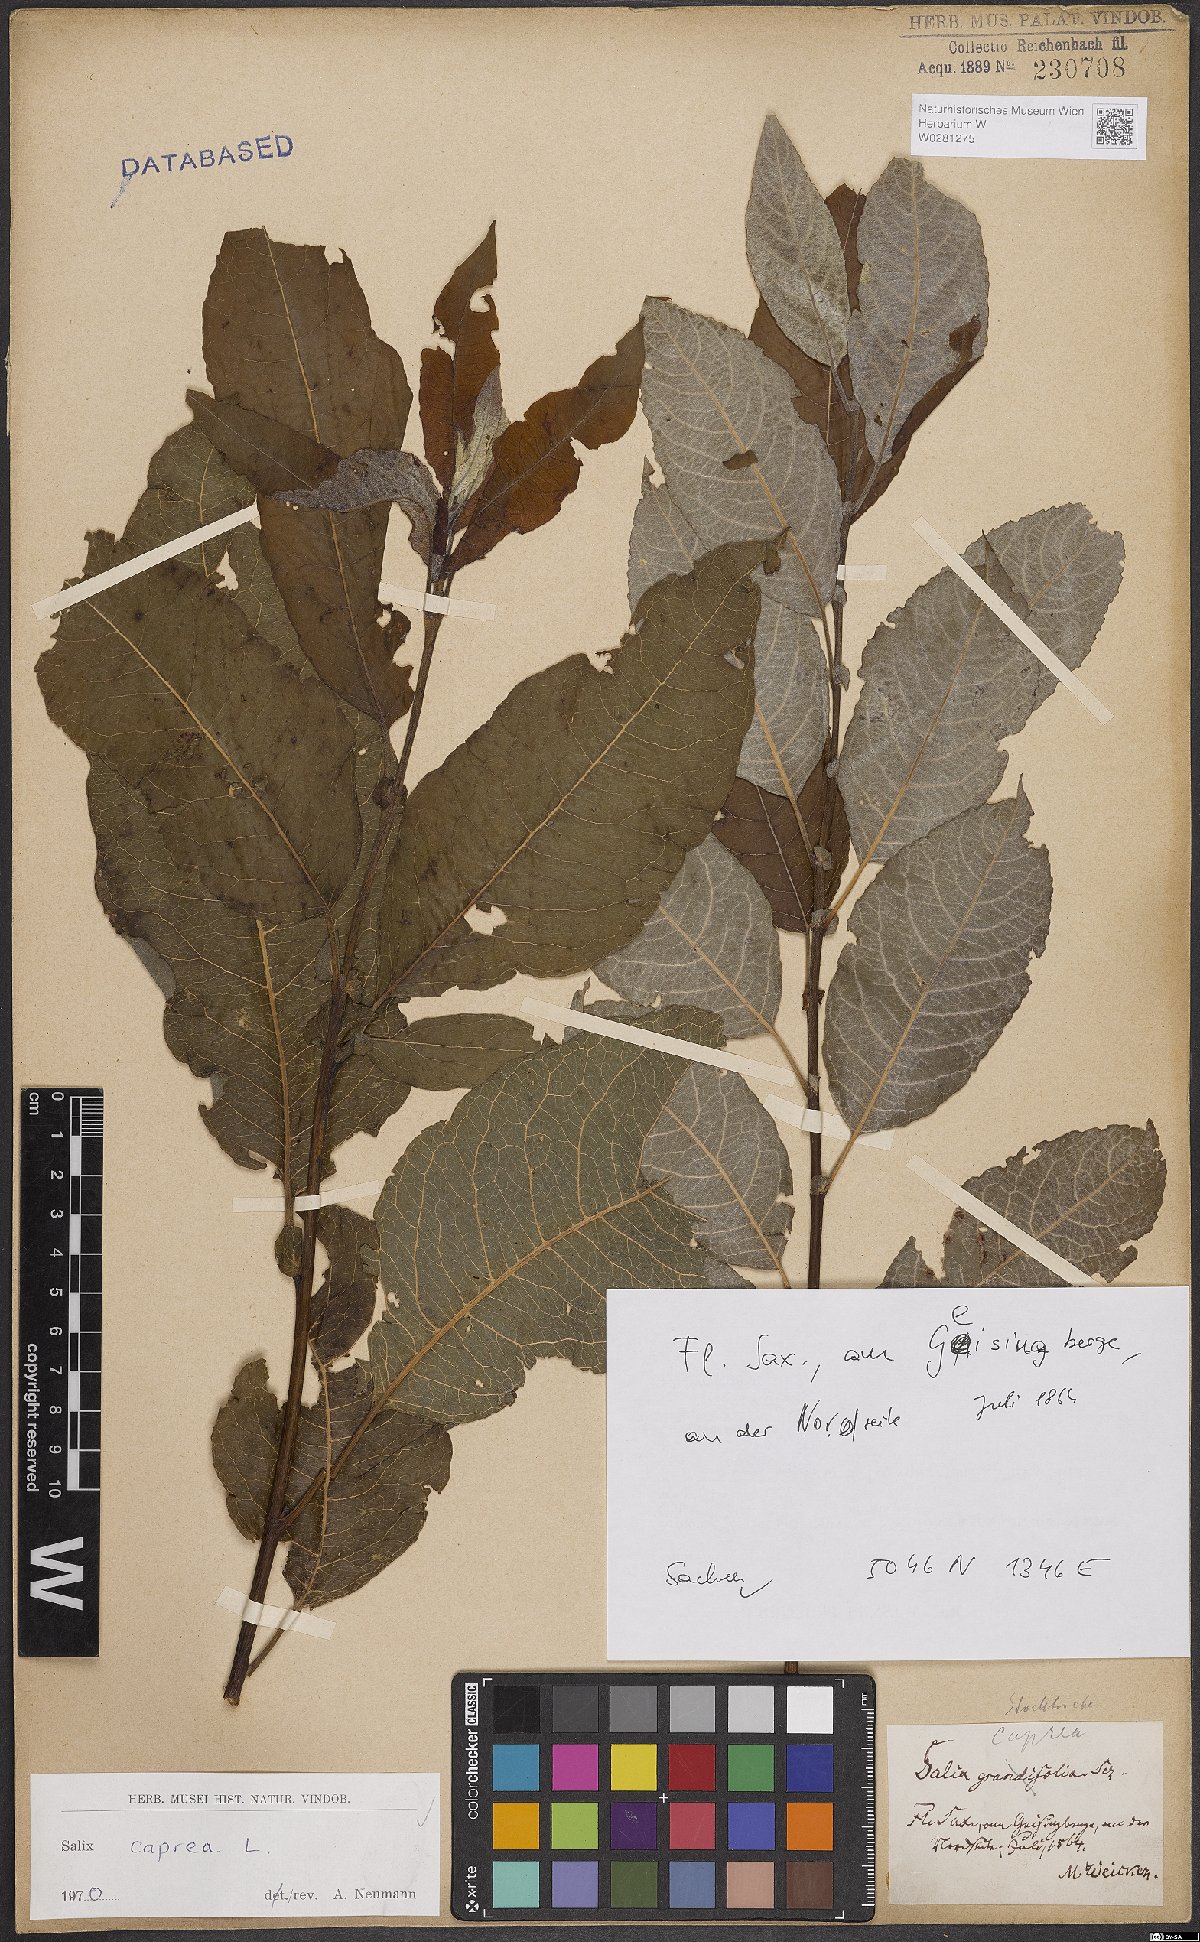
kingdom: Plantae
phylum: Tracheophyta
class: Magnoliopsida
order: Malpighiales
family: Salicaceae
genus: Salix
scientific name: Salix caprea
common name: Goat willow
